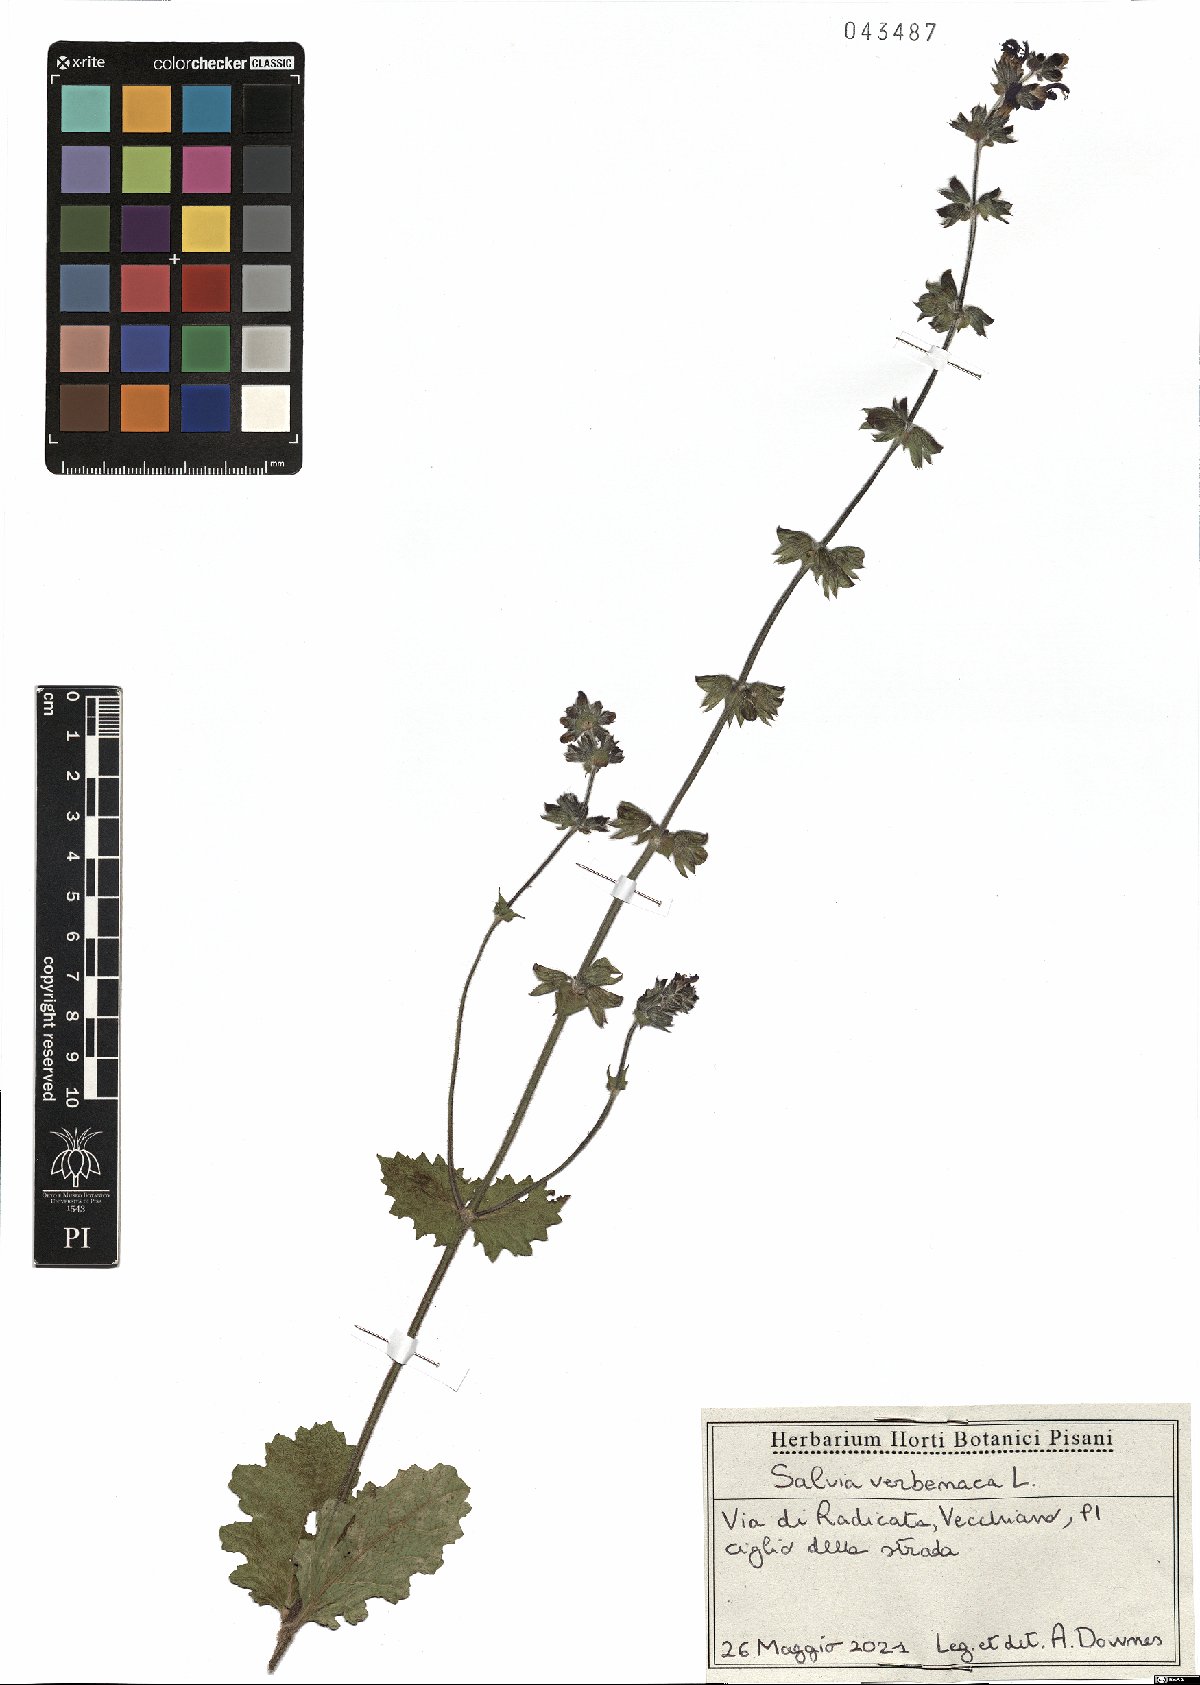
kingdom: Plantae
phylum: Tracheophyta
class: Magnoliopsida
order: Lamiales
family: Lamiaceae
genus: Salvia
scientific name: Salvia verbenaca
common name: Wild clary
